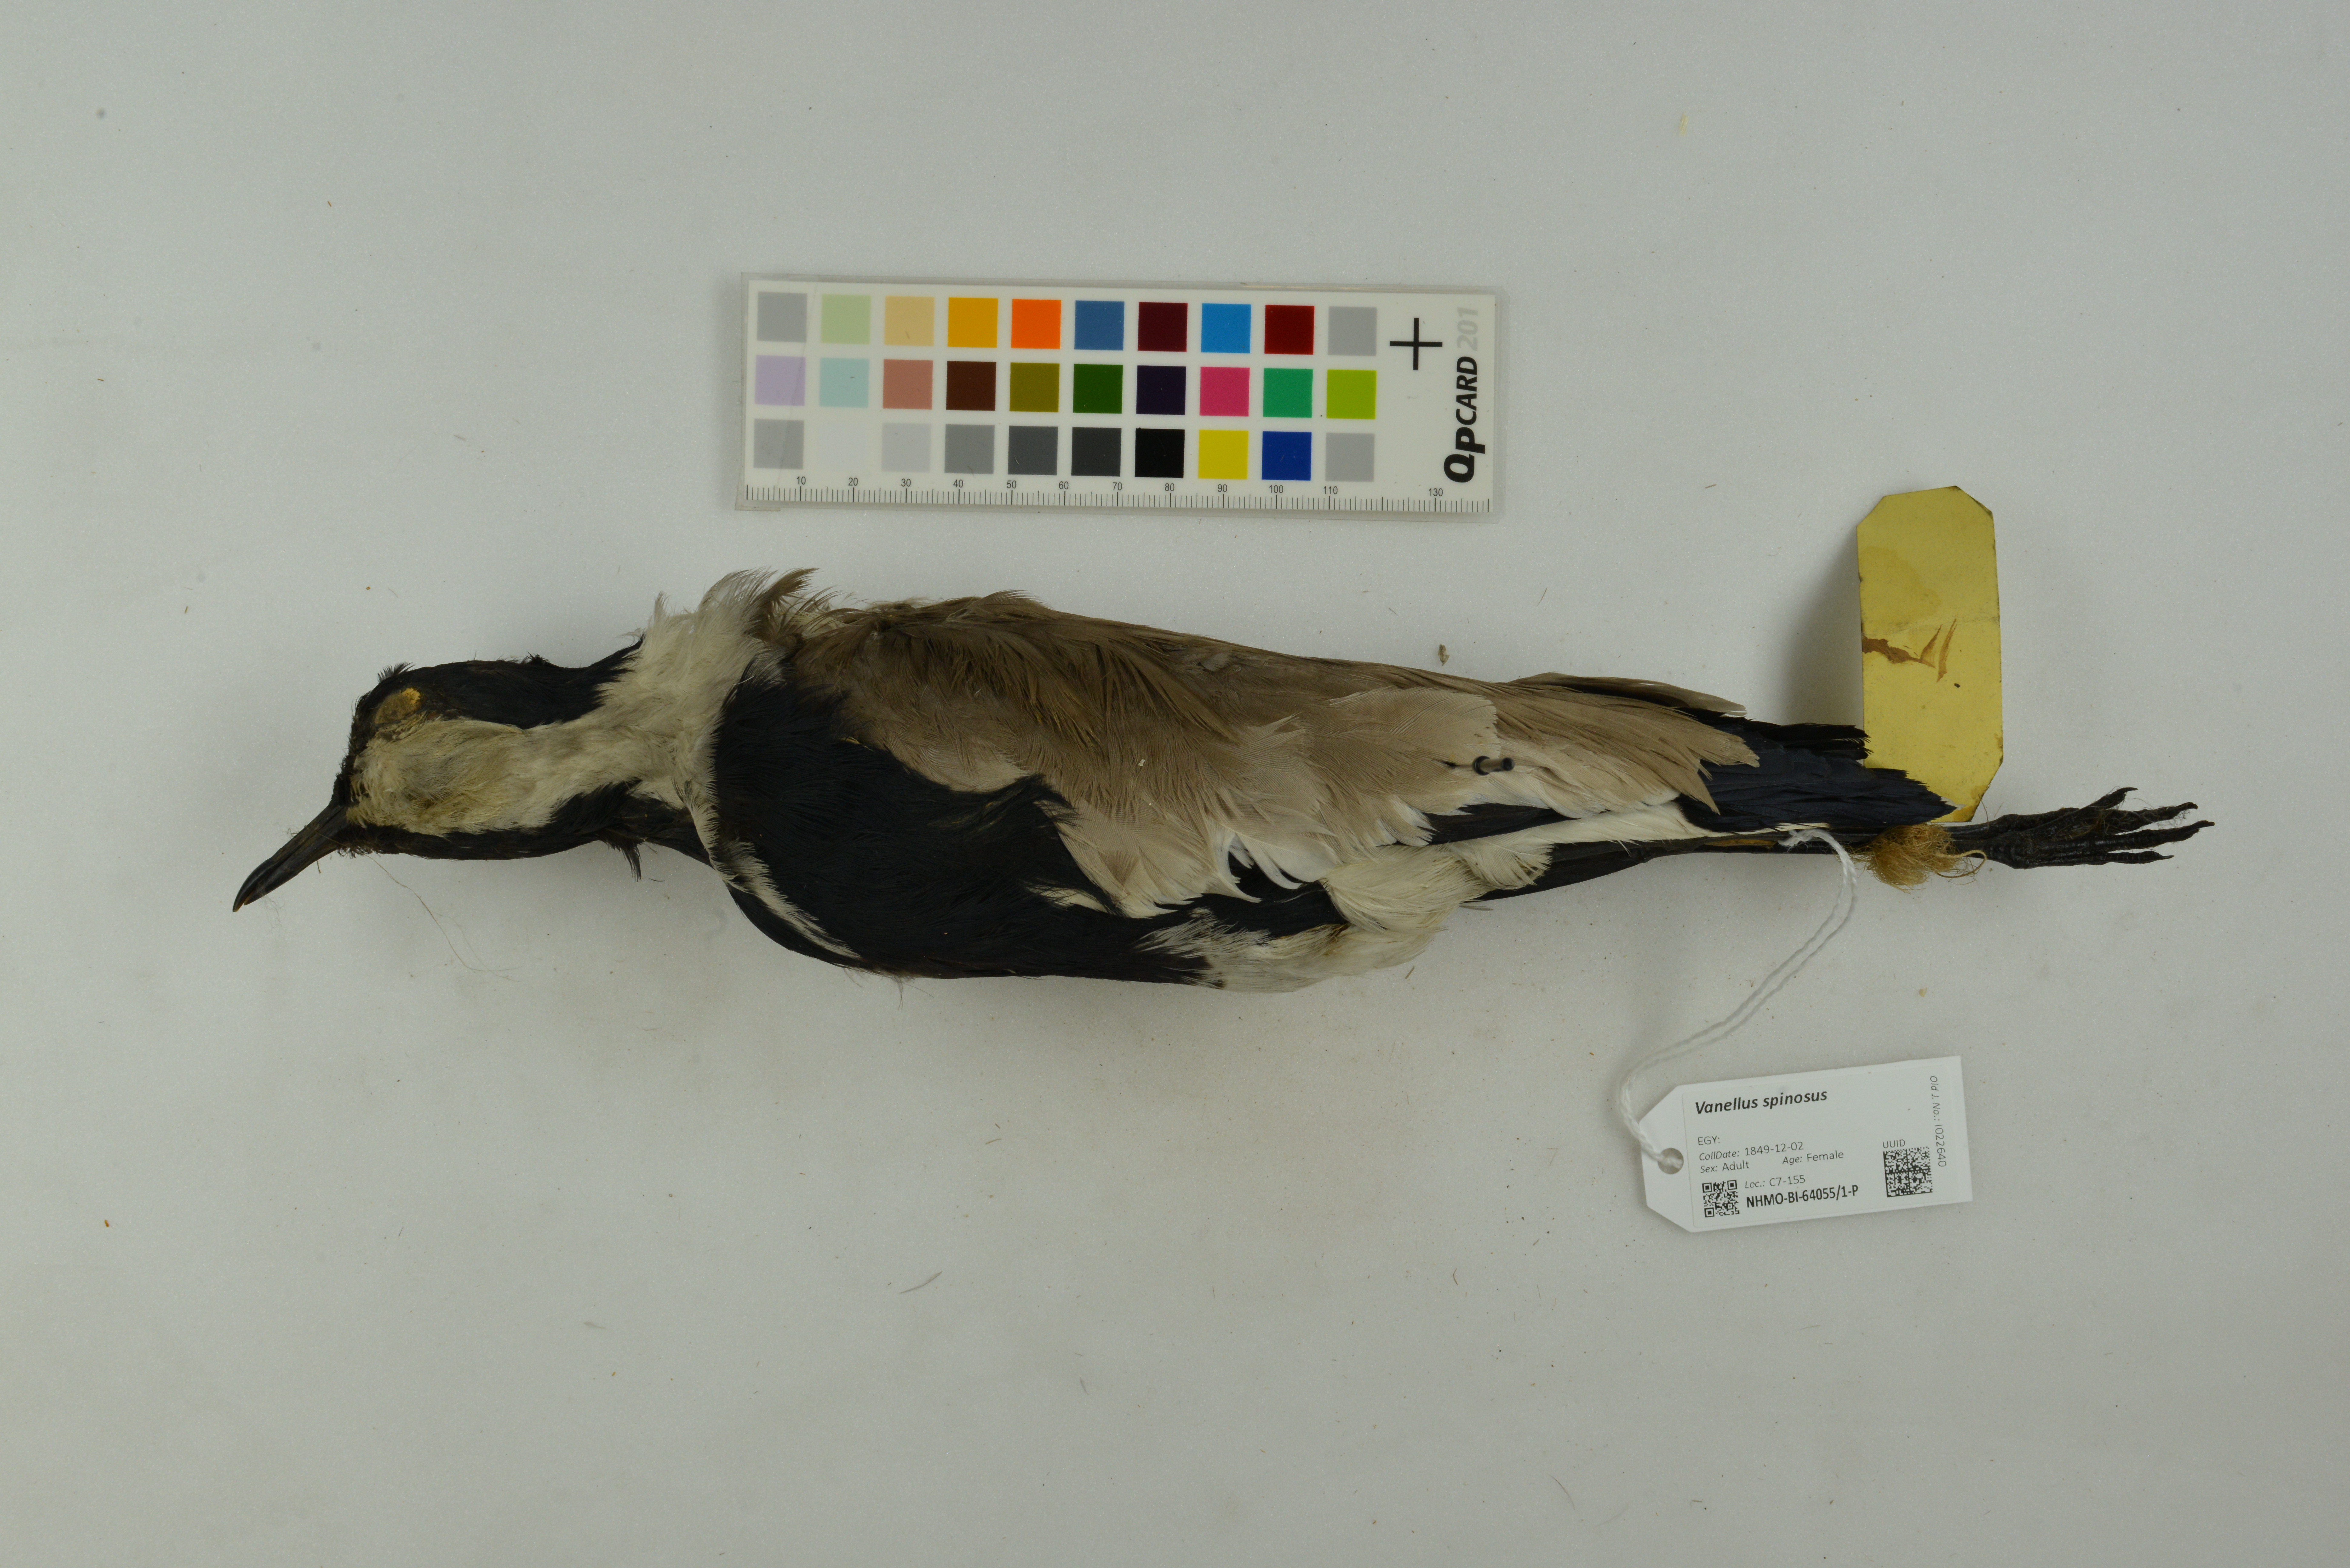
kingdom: Animalia
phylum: Chordata
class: Aves
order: Charadriiformes
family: Charadriidae
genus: Vanellus
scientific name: Vanellus spinosus
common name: Spur-winged lapwing
